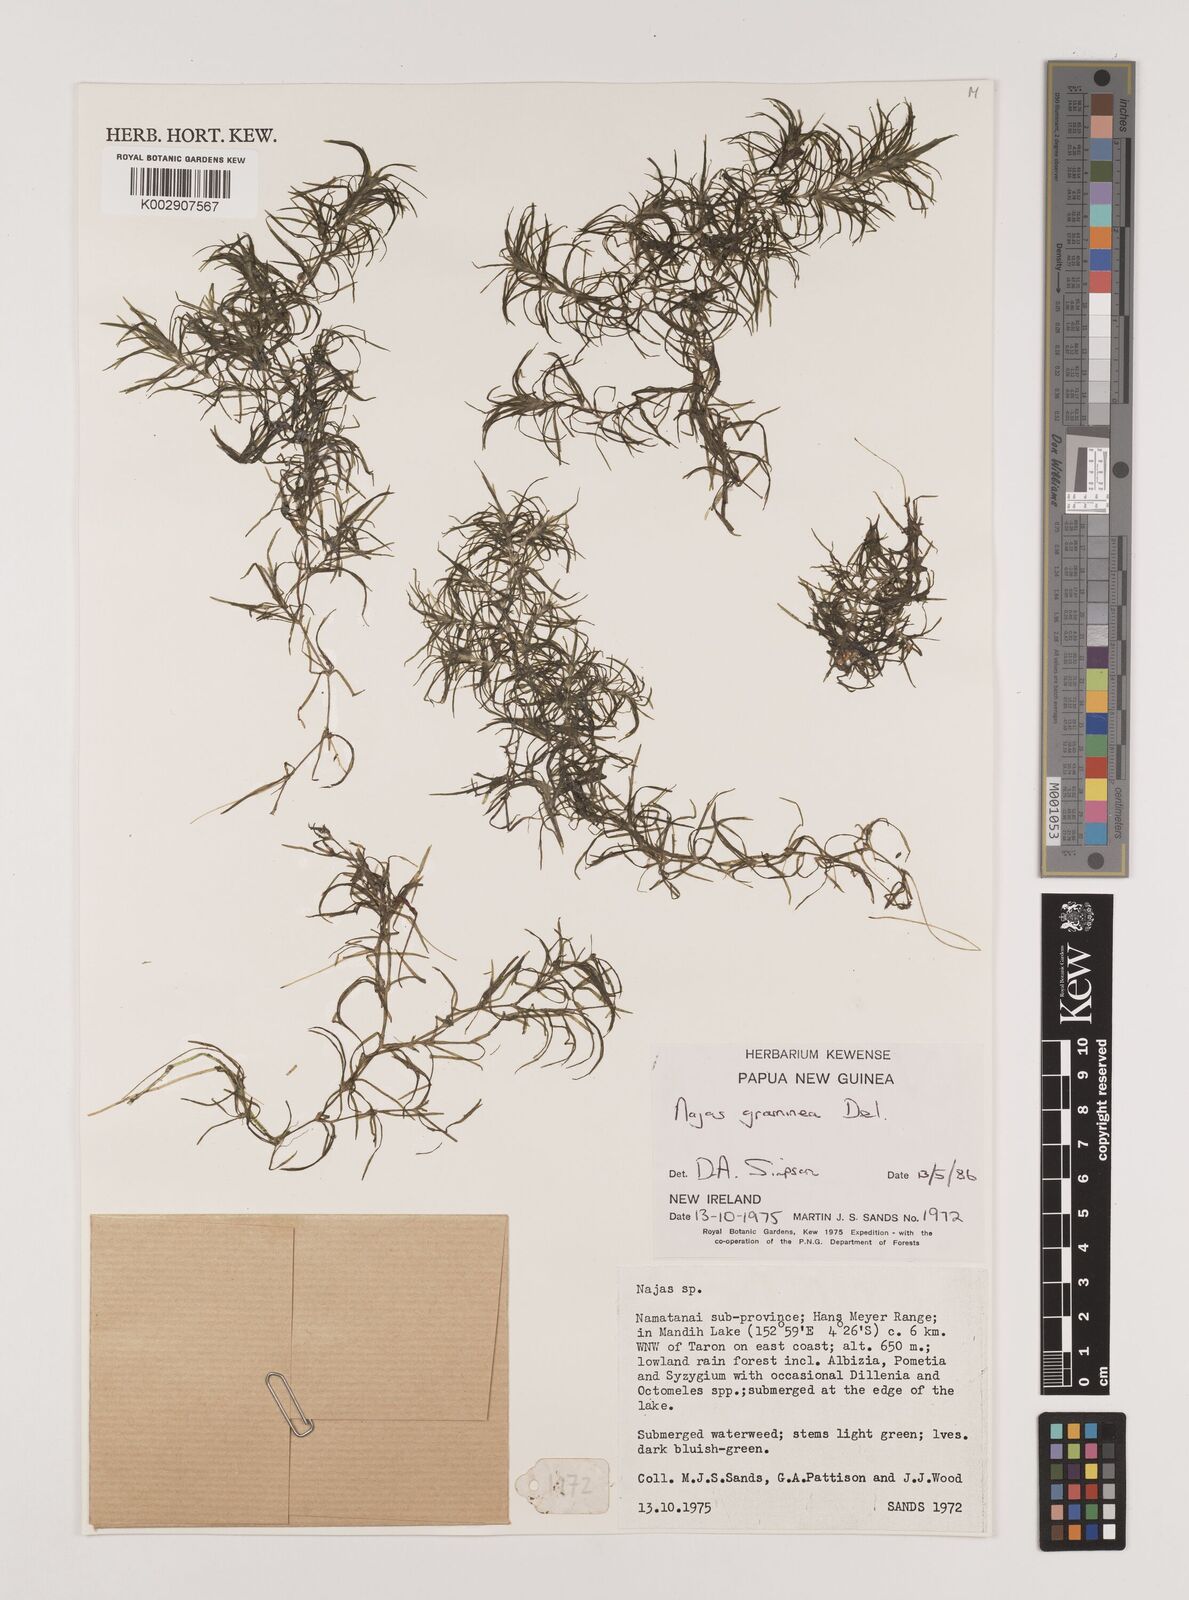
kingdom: Plantae
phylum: Tracheophyta
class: Liliopsida
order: Alismatales
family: Hydrocharitaceae
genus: Najas
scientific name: Najas graminea
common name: Ricefield waternymph
